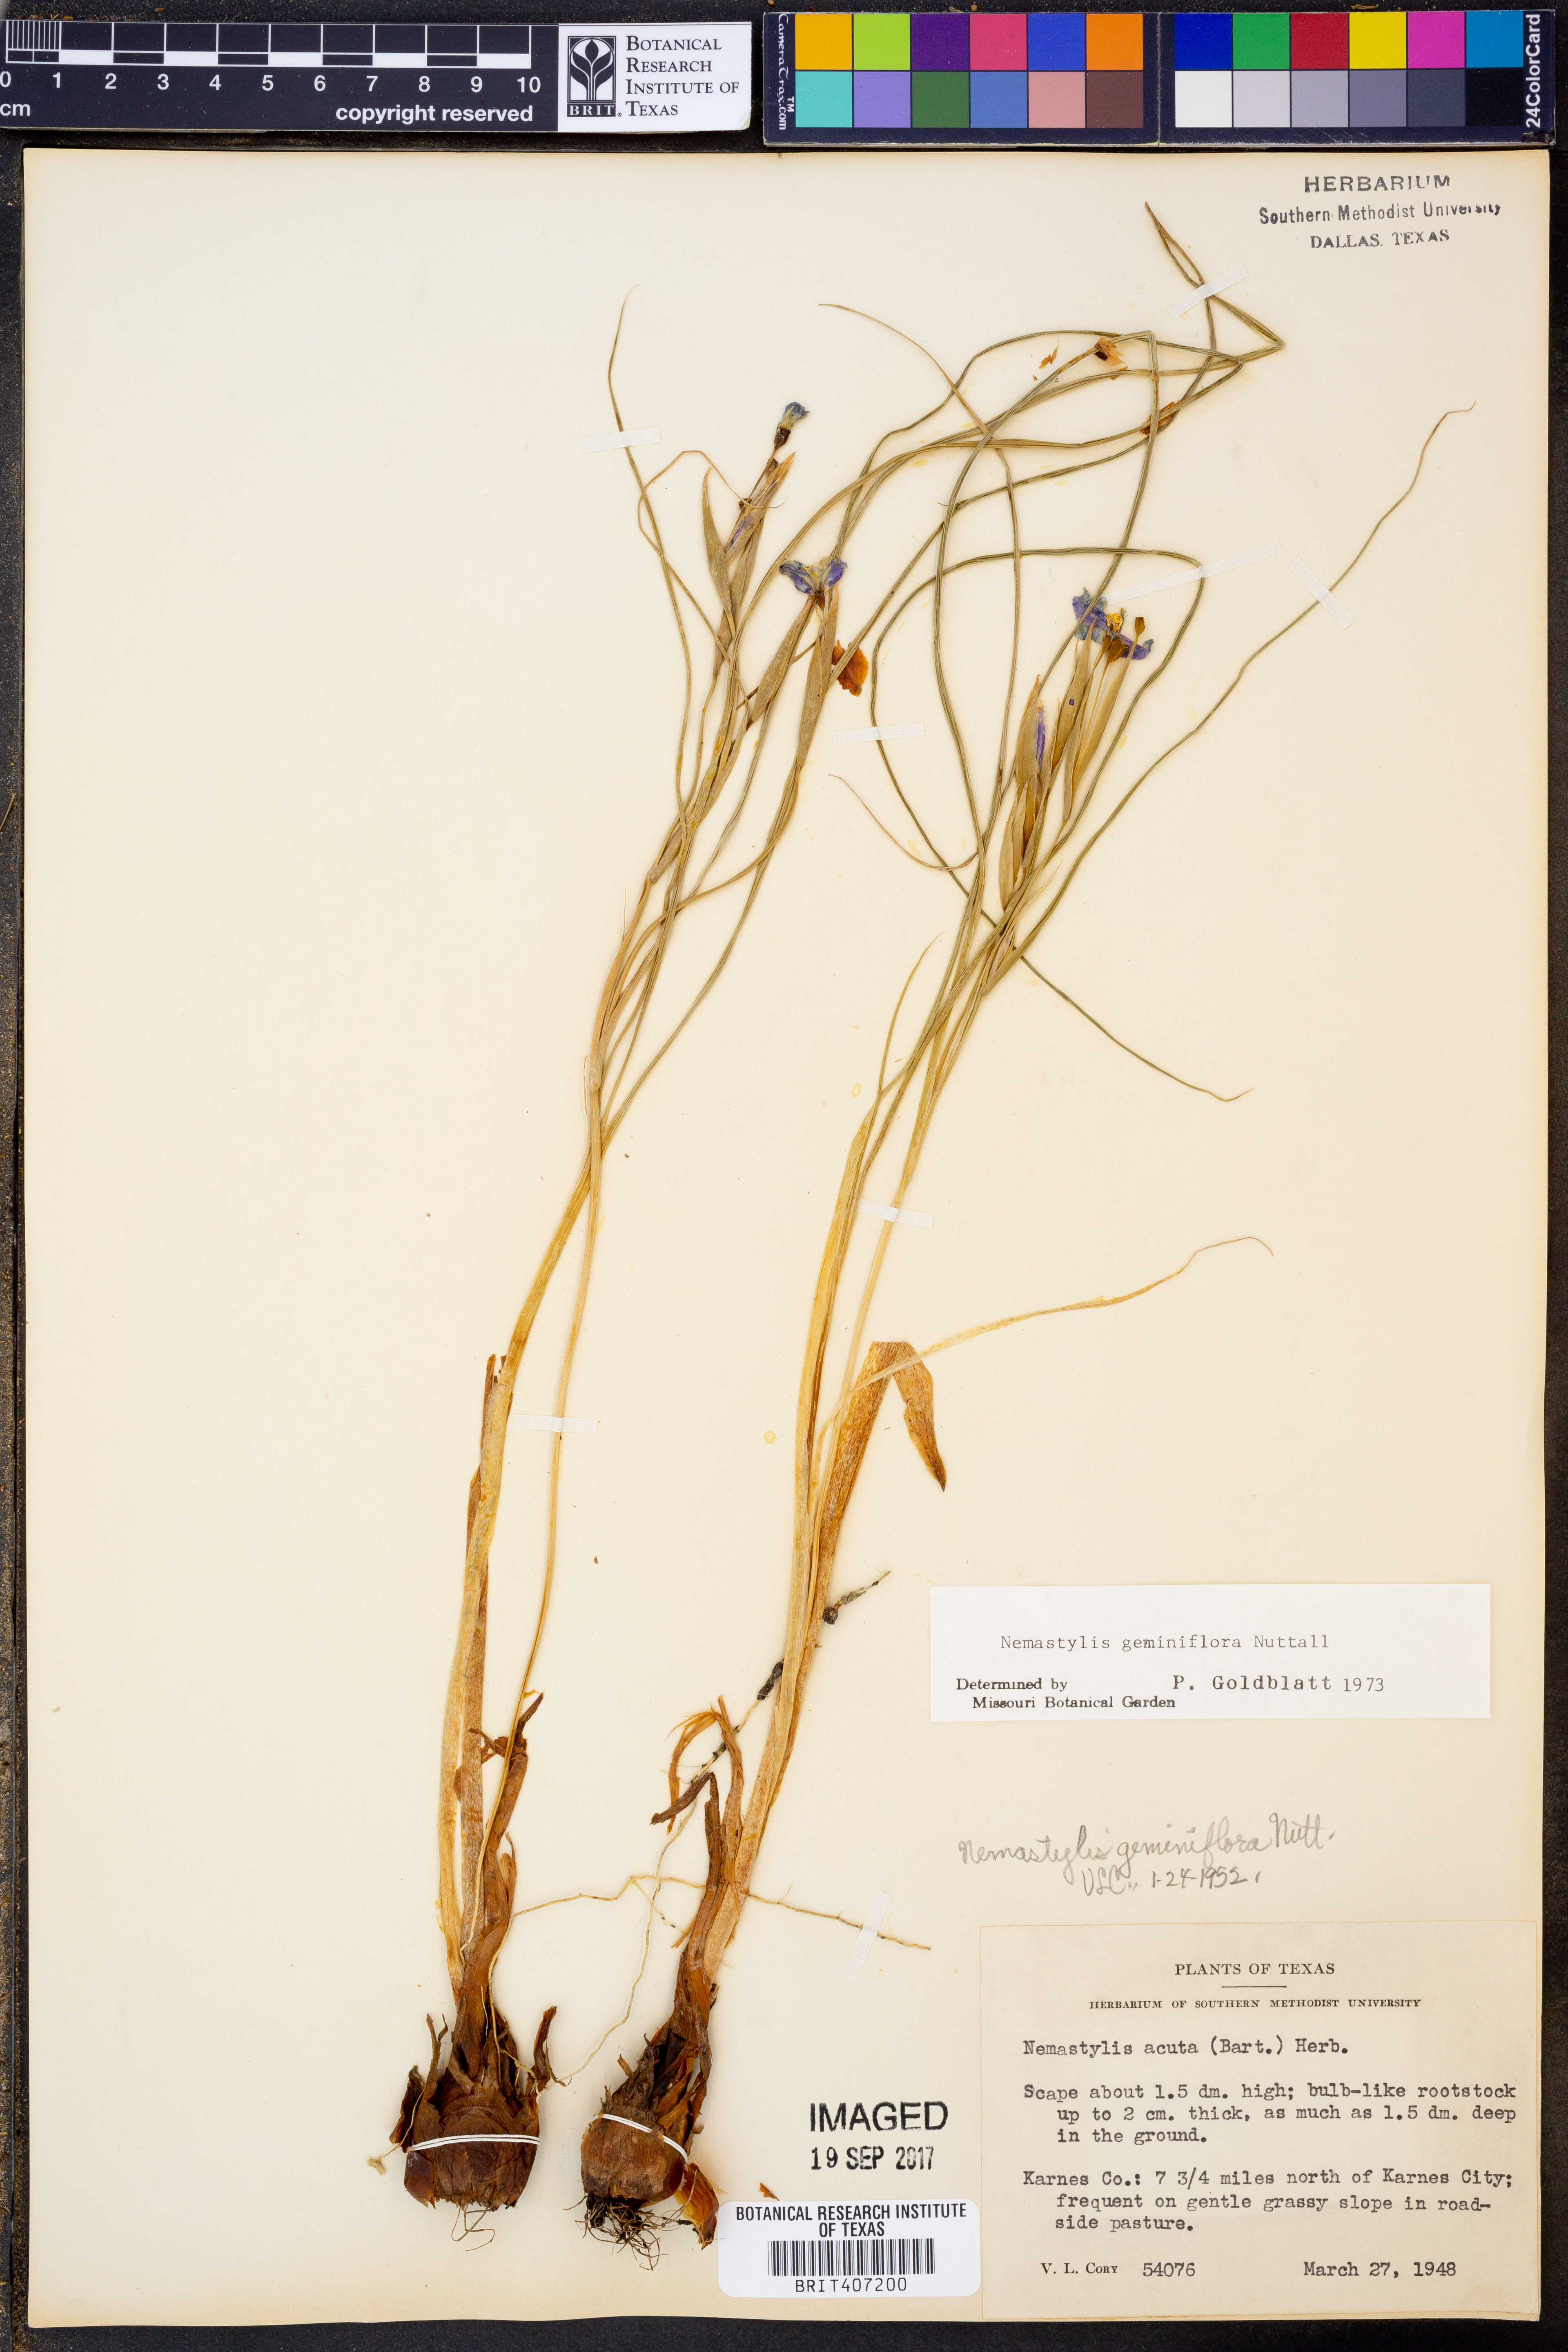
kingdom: Plantae
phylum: Tracheophyta
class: Liliopsida
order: Asparagales
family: Iridaceae
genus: Nemastylis
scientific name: Nemastylis geminiflora
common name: Prairie celestial
